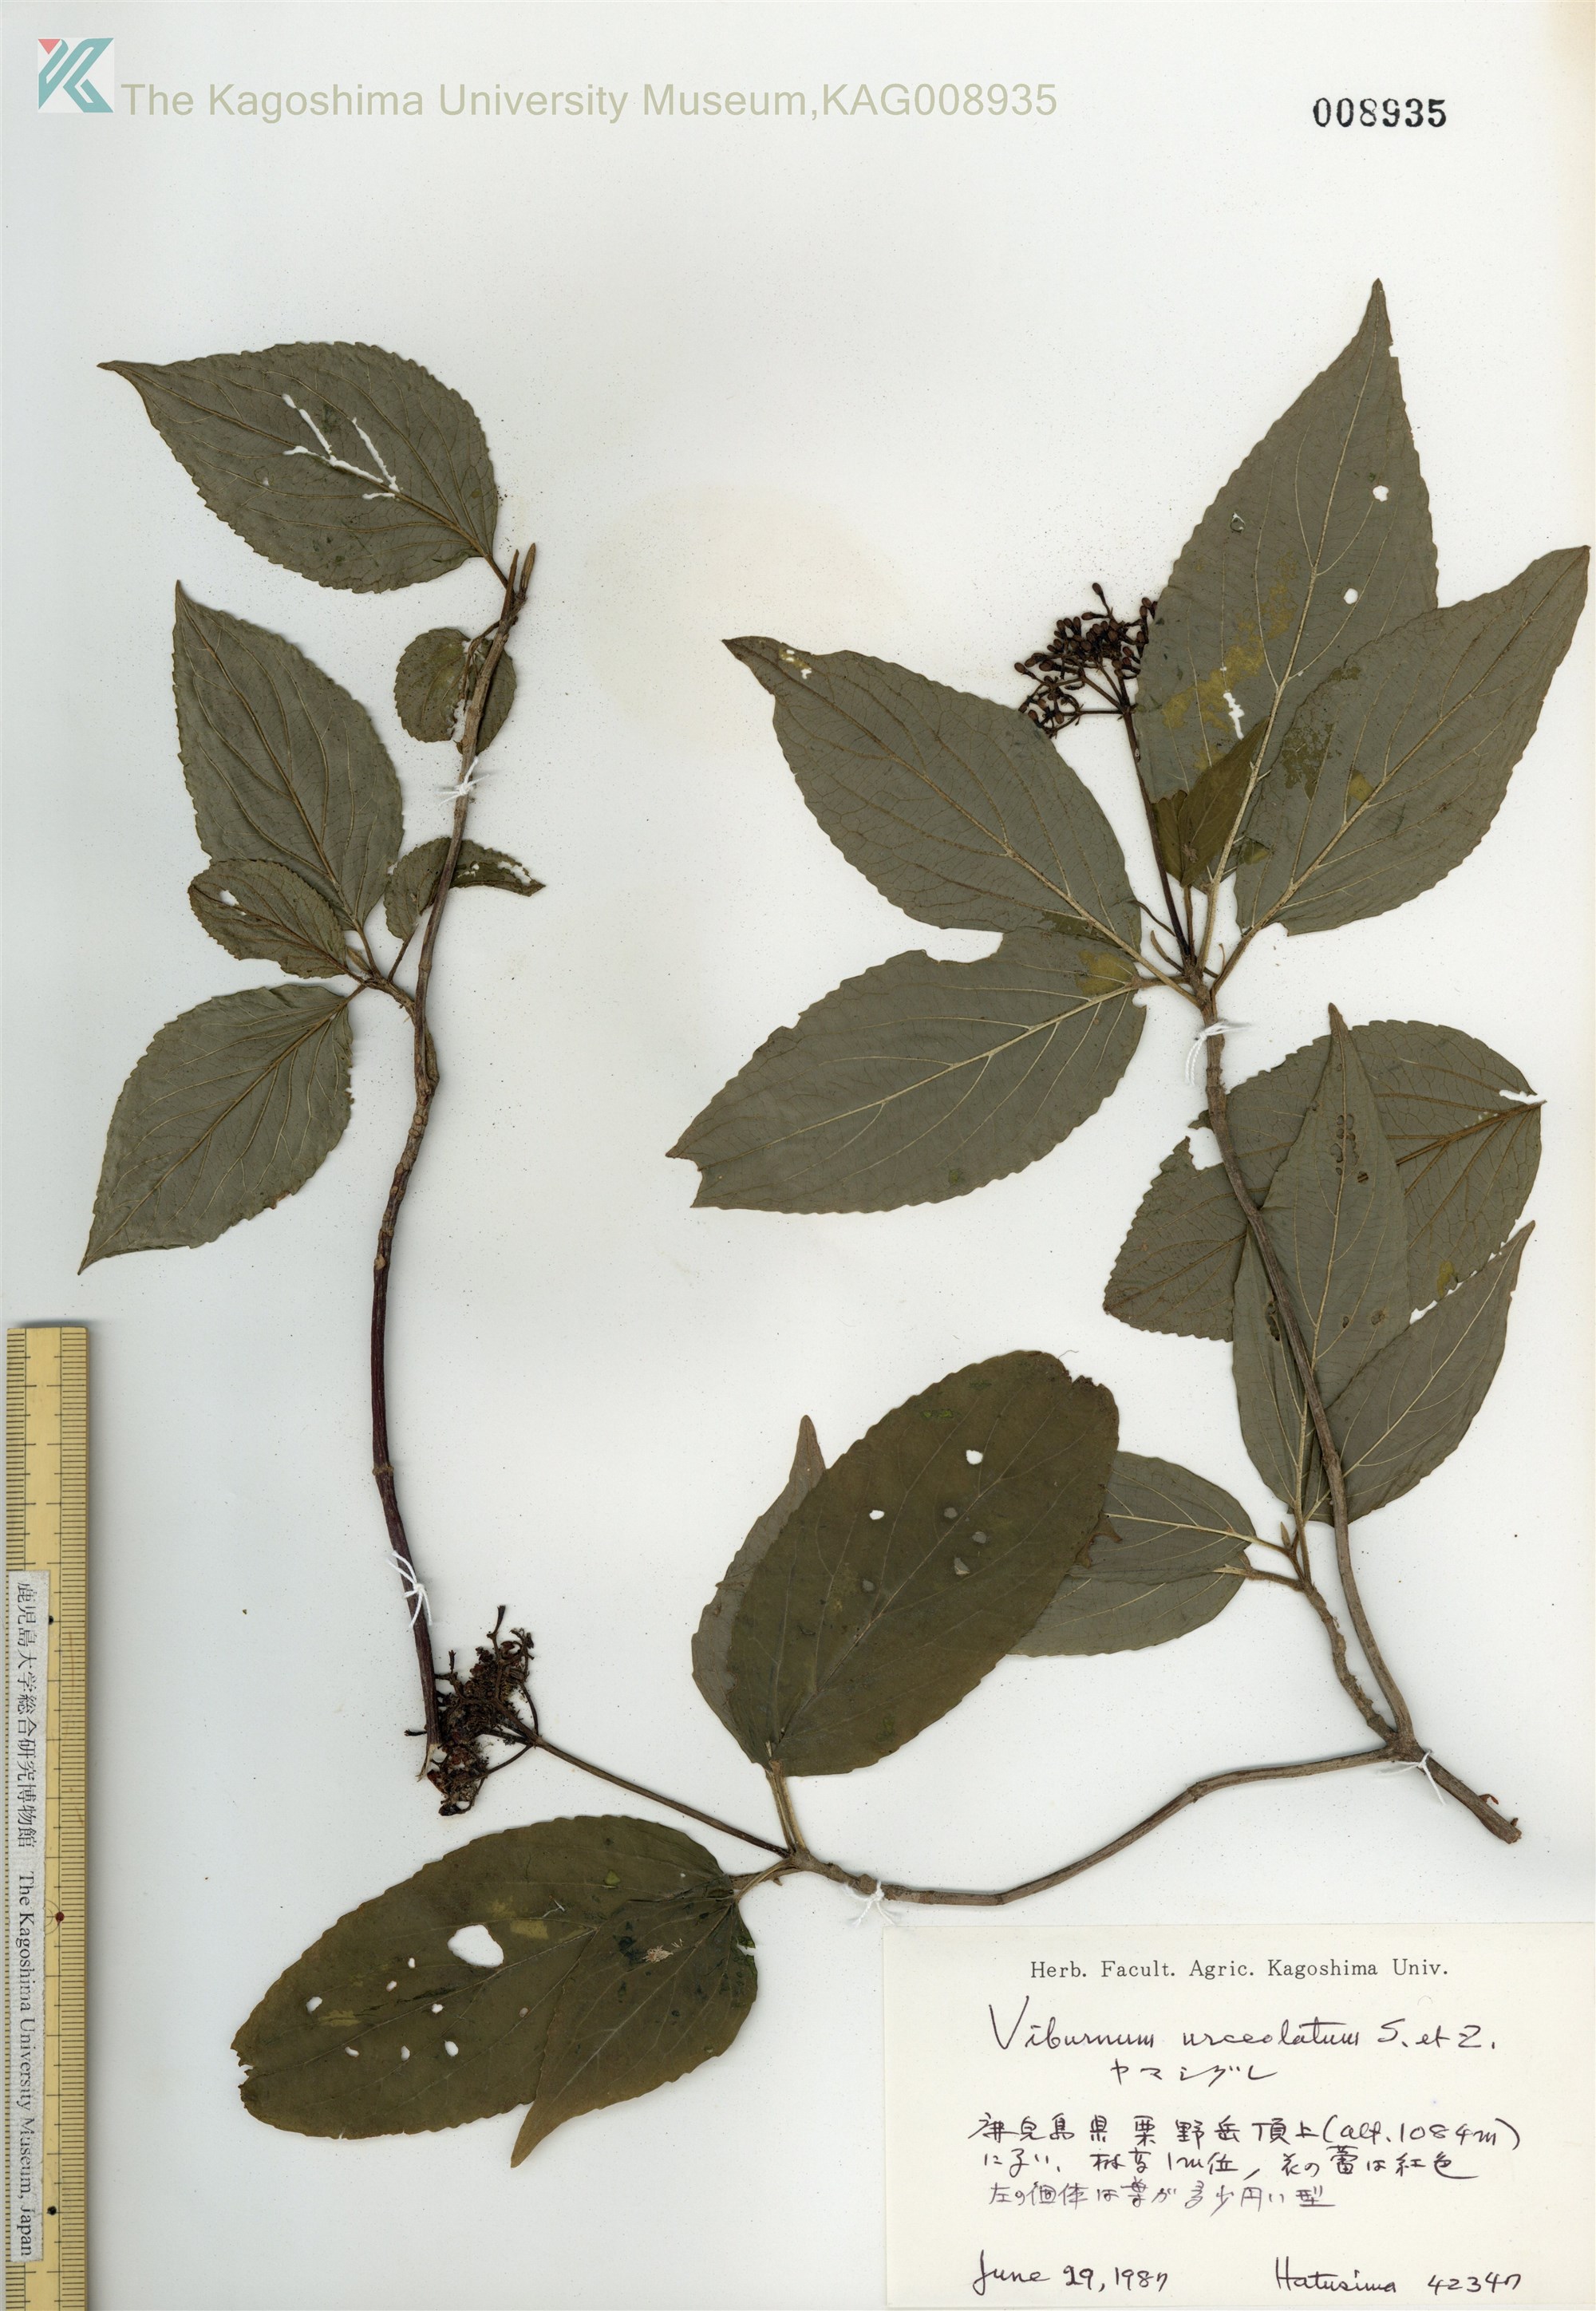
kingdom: Plantae
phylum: Tracheophyta
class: Magnoliopsida
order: Dipsacales
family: Viburnaceae
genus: Viburnum
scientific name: Viburnum urceolatum
